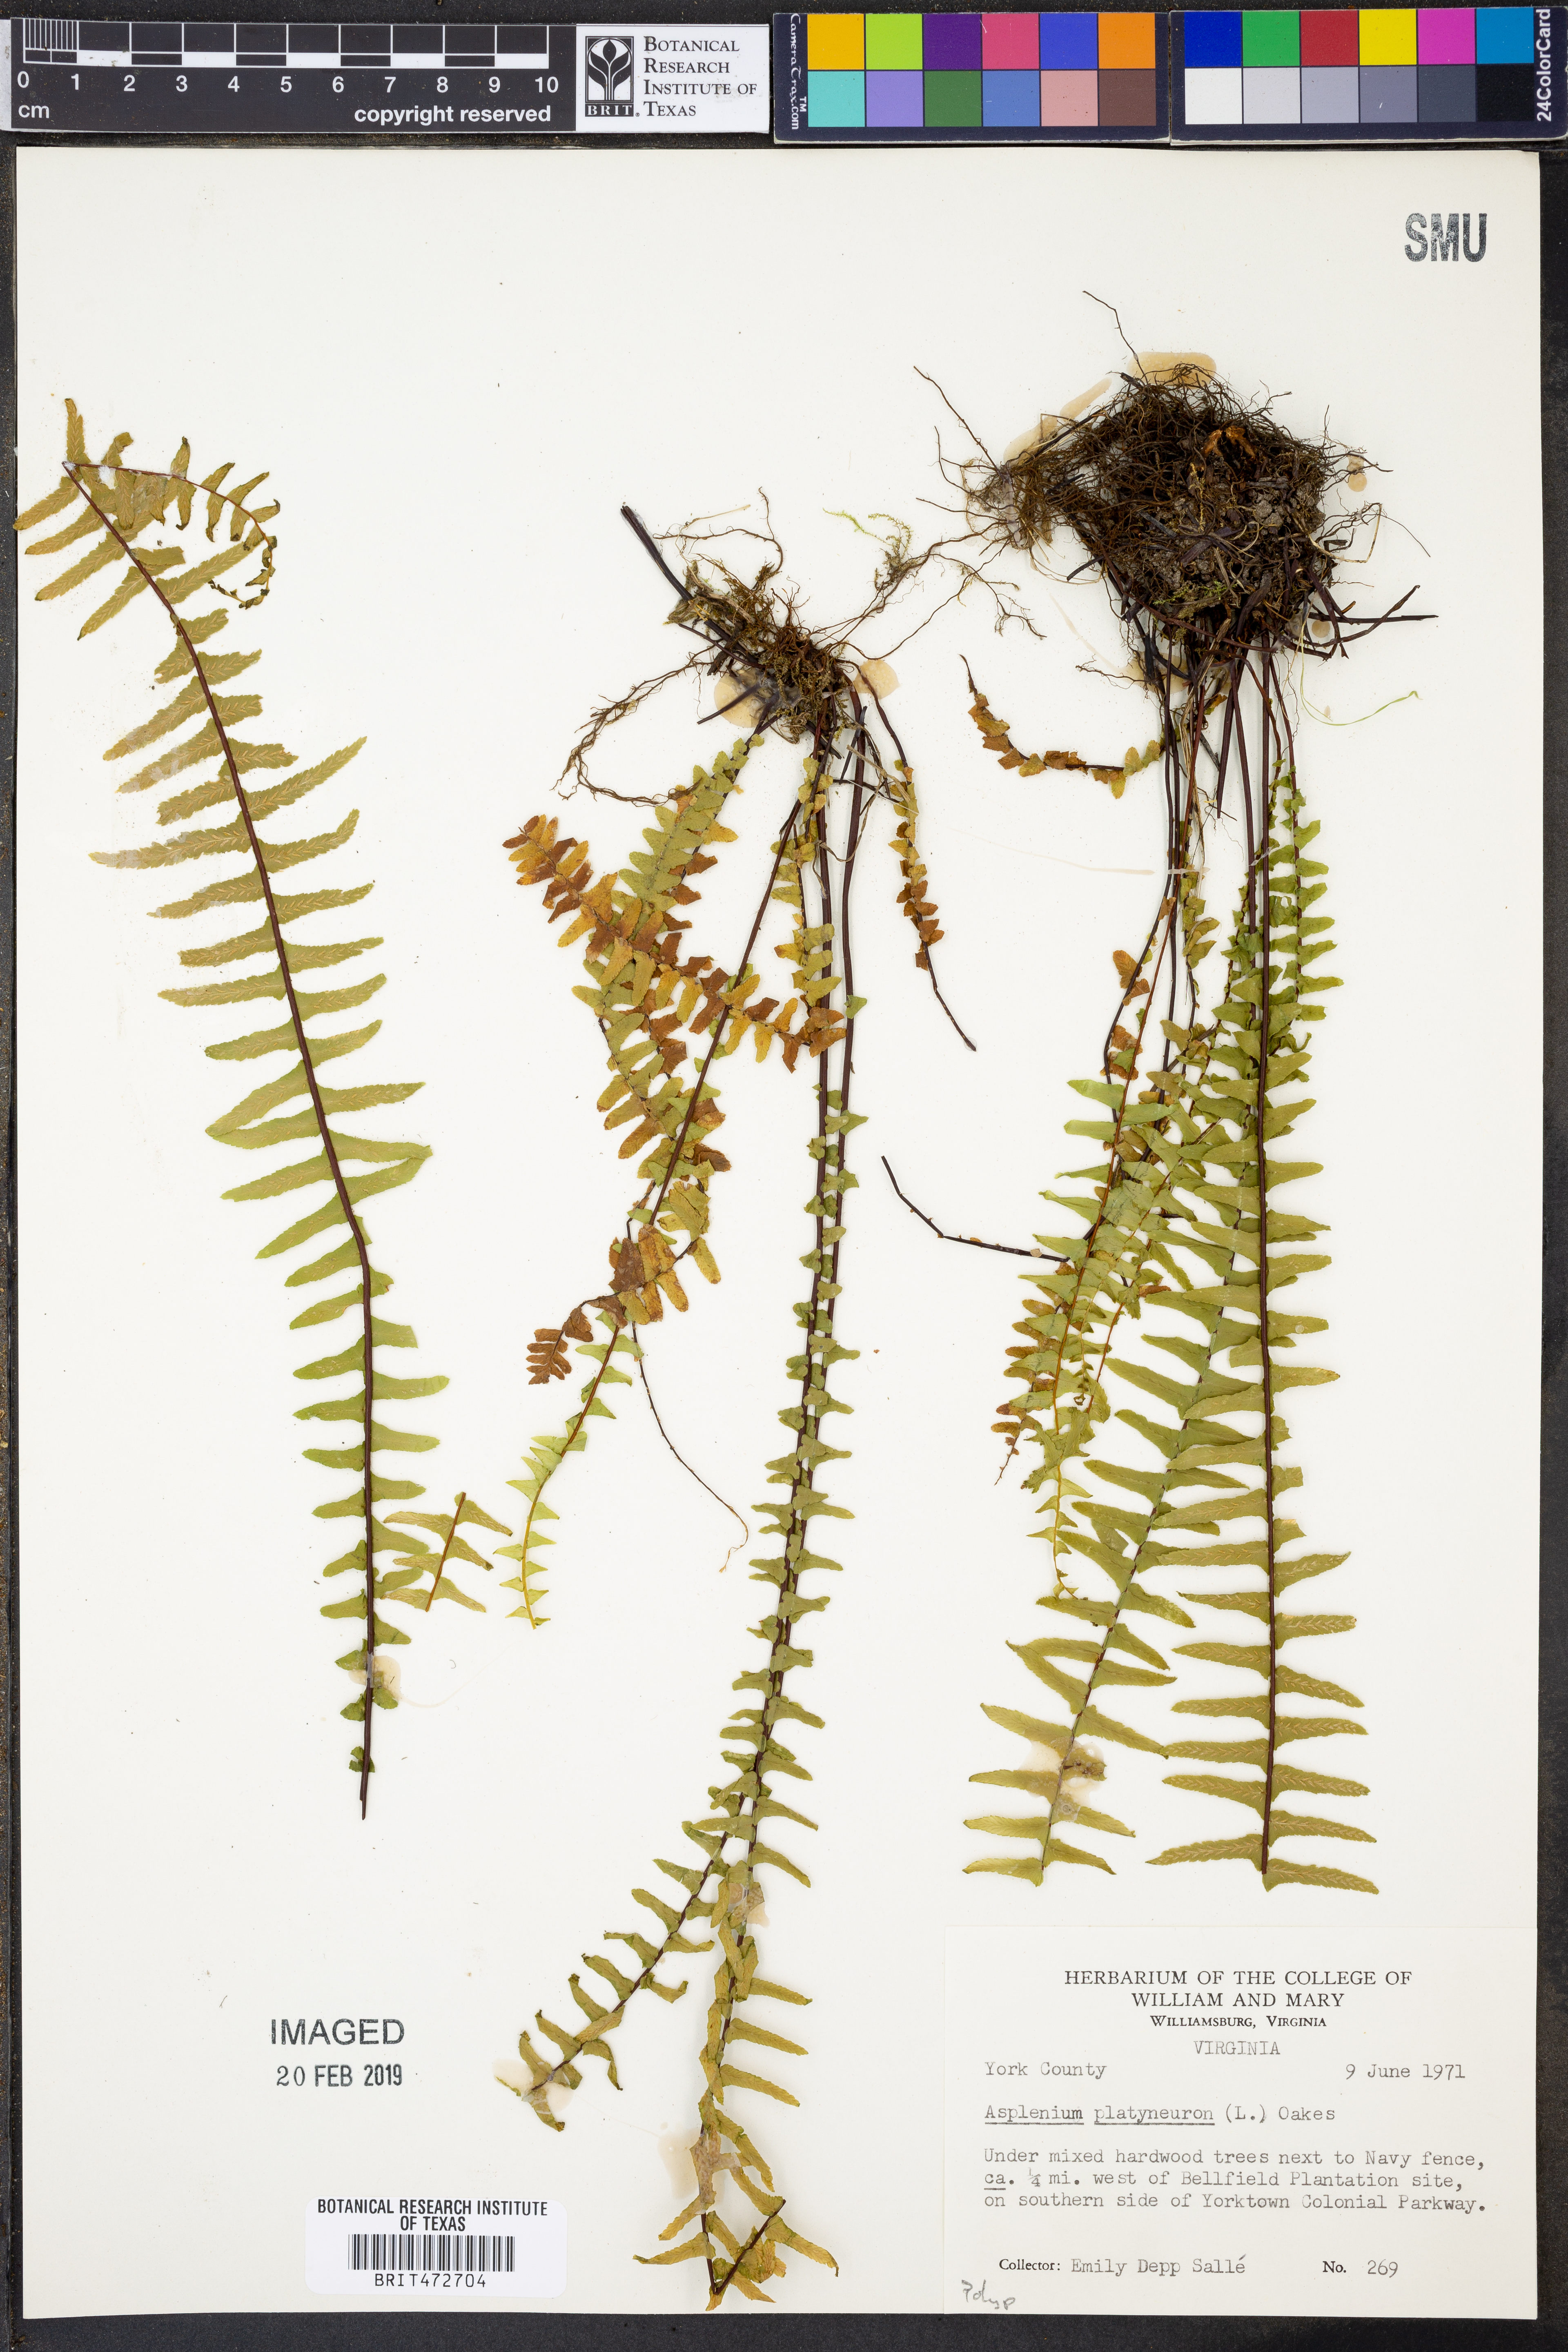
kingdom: Plantae
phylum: Tracheophyta
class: Polypodiopsida
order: Polypodiales
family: Aspleniaceae
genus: Asplenium
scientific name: Asplenium platyneuron
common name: Ebony spleenwort
